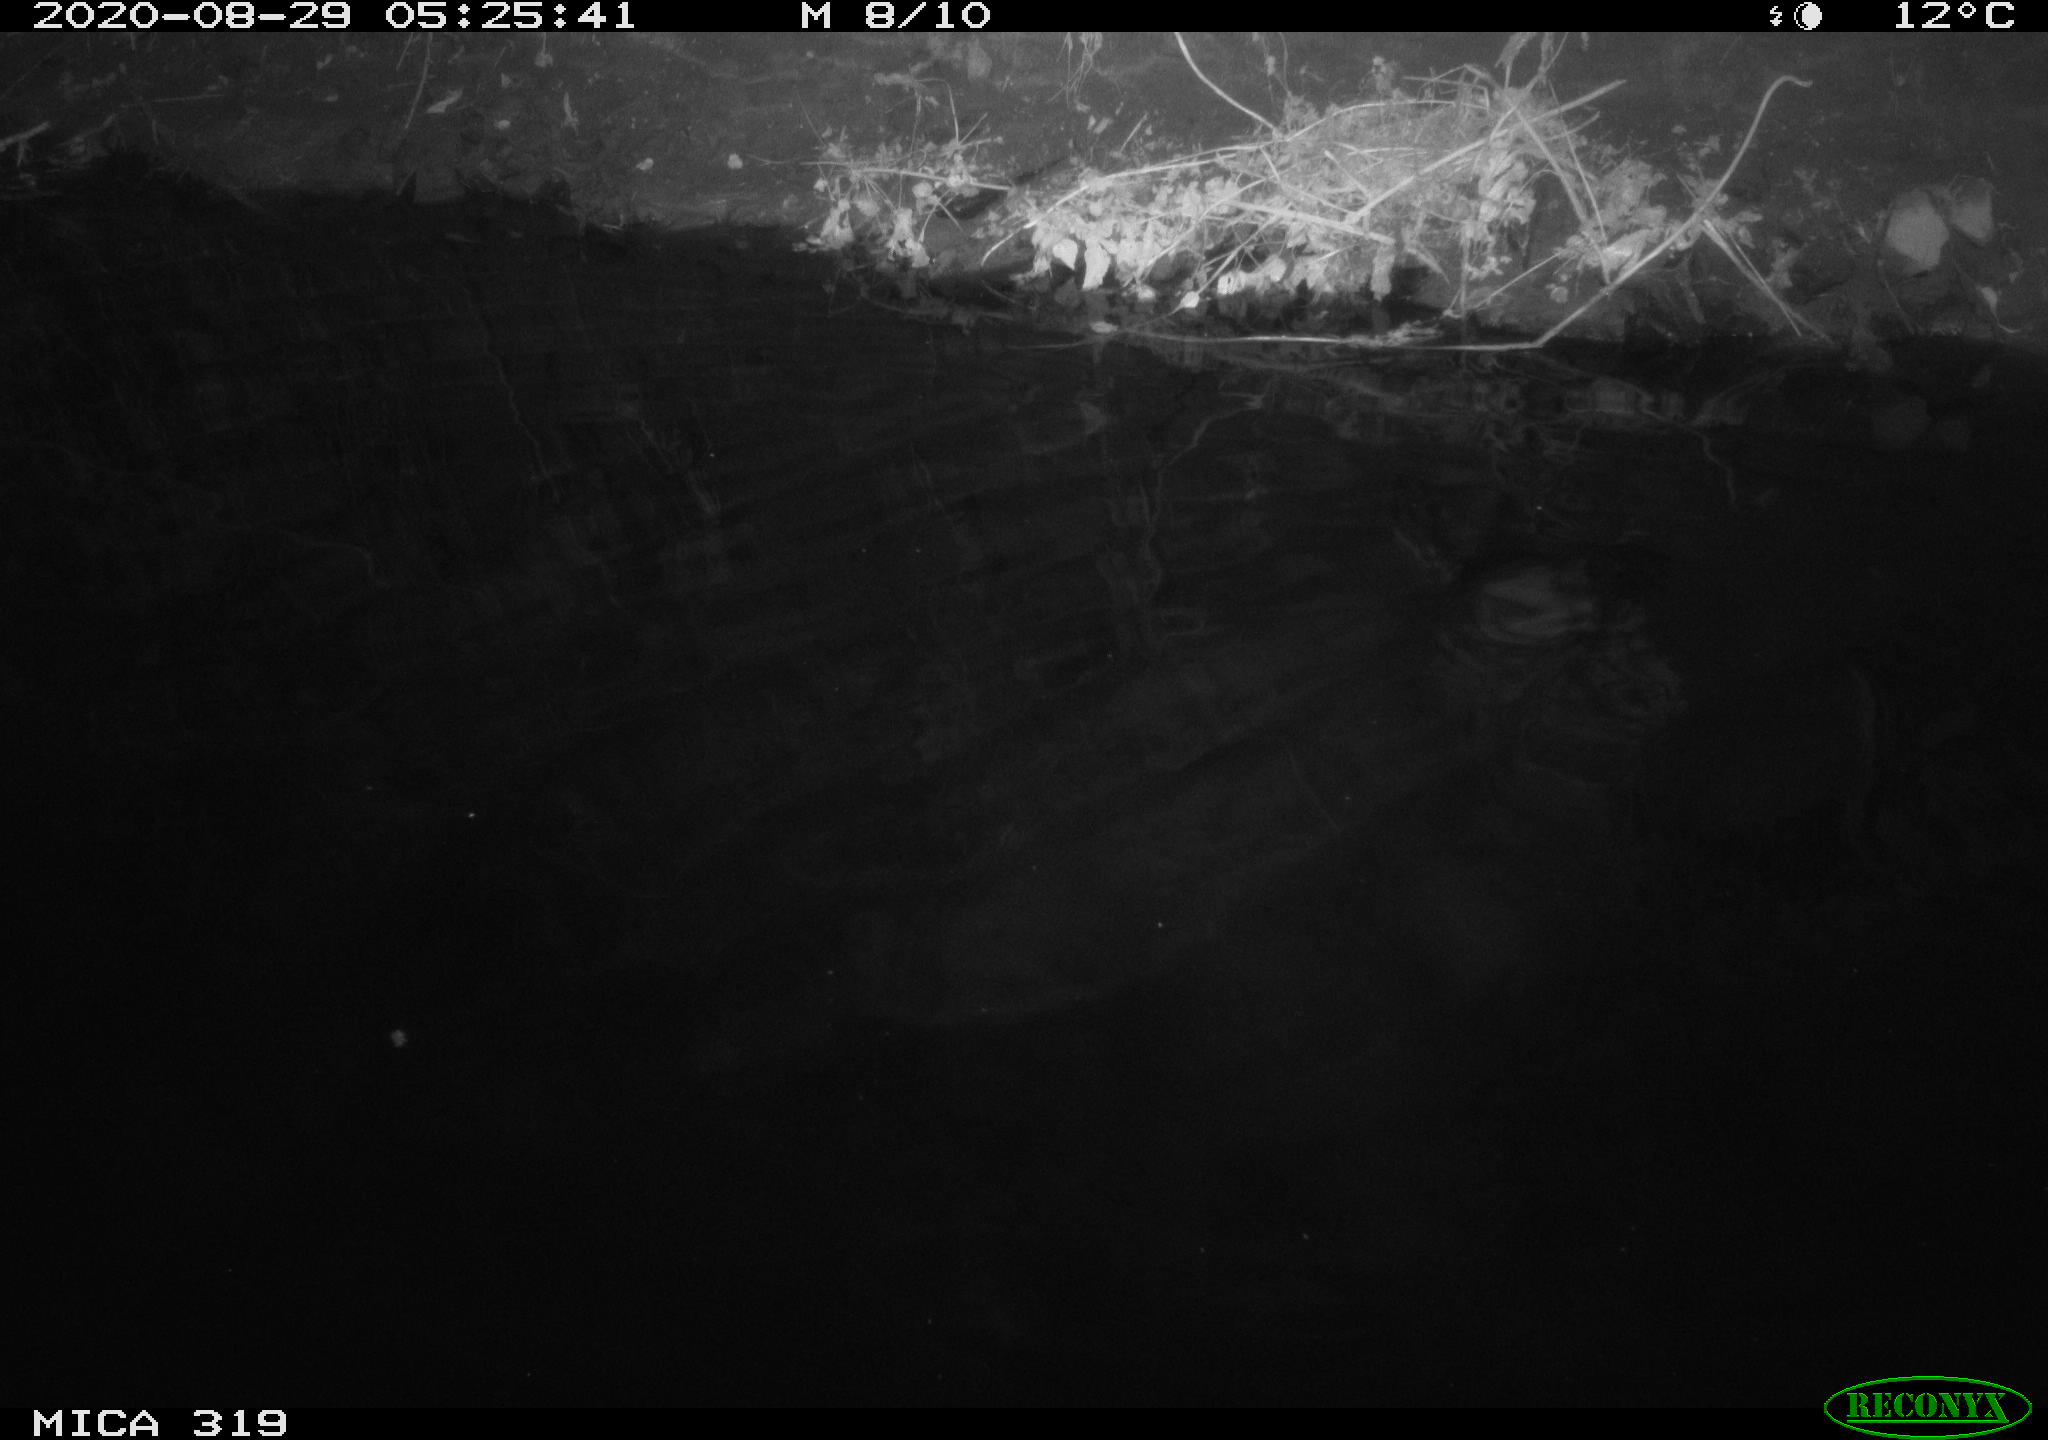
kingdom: Animalia
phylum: Chordata
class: Aves
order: Anseriformes
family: Anatidae
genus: Anas
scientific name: Anas platyrhynchos
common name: Mallard
